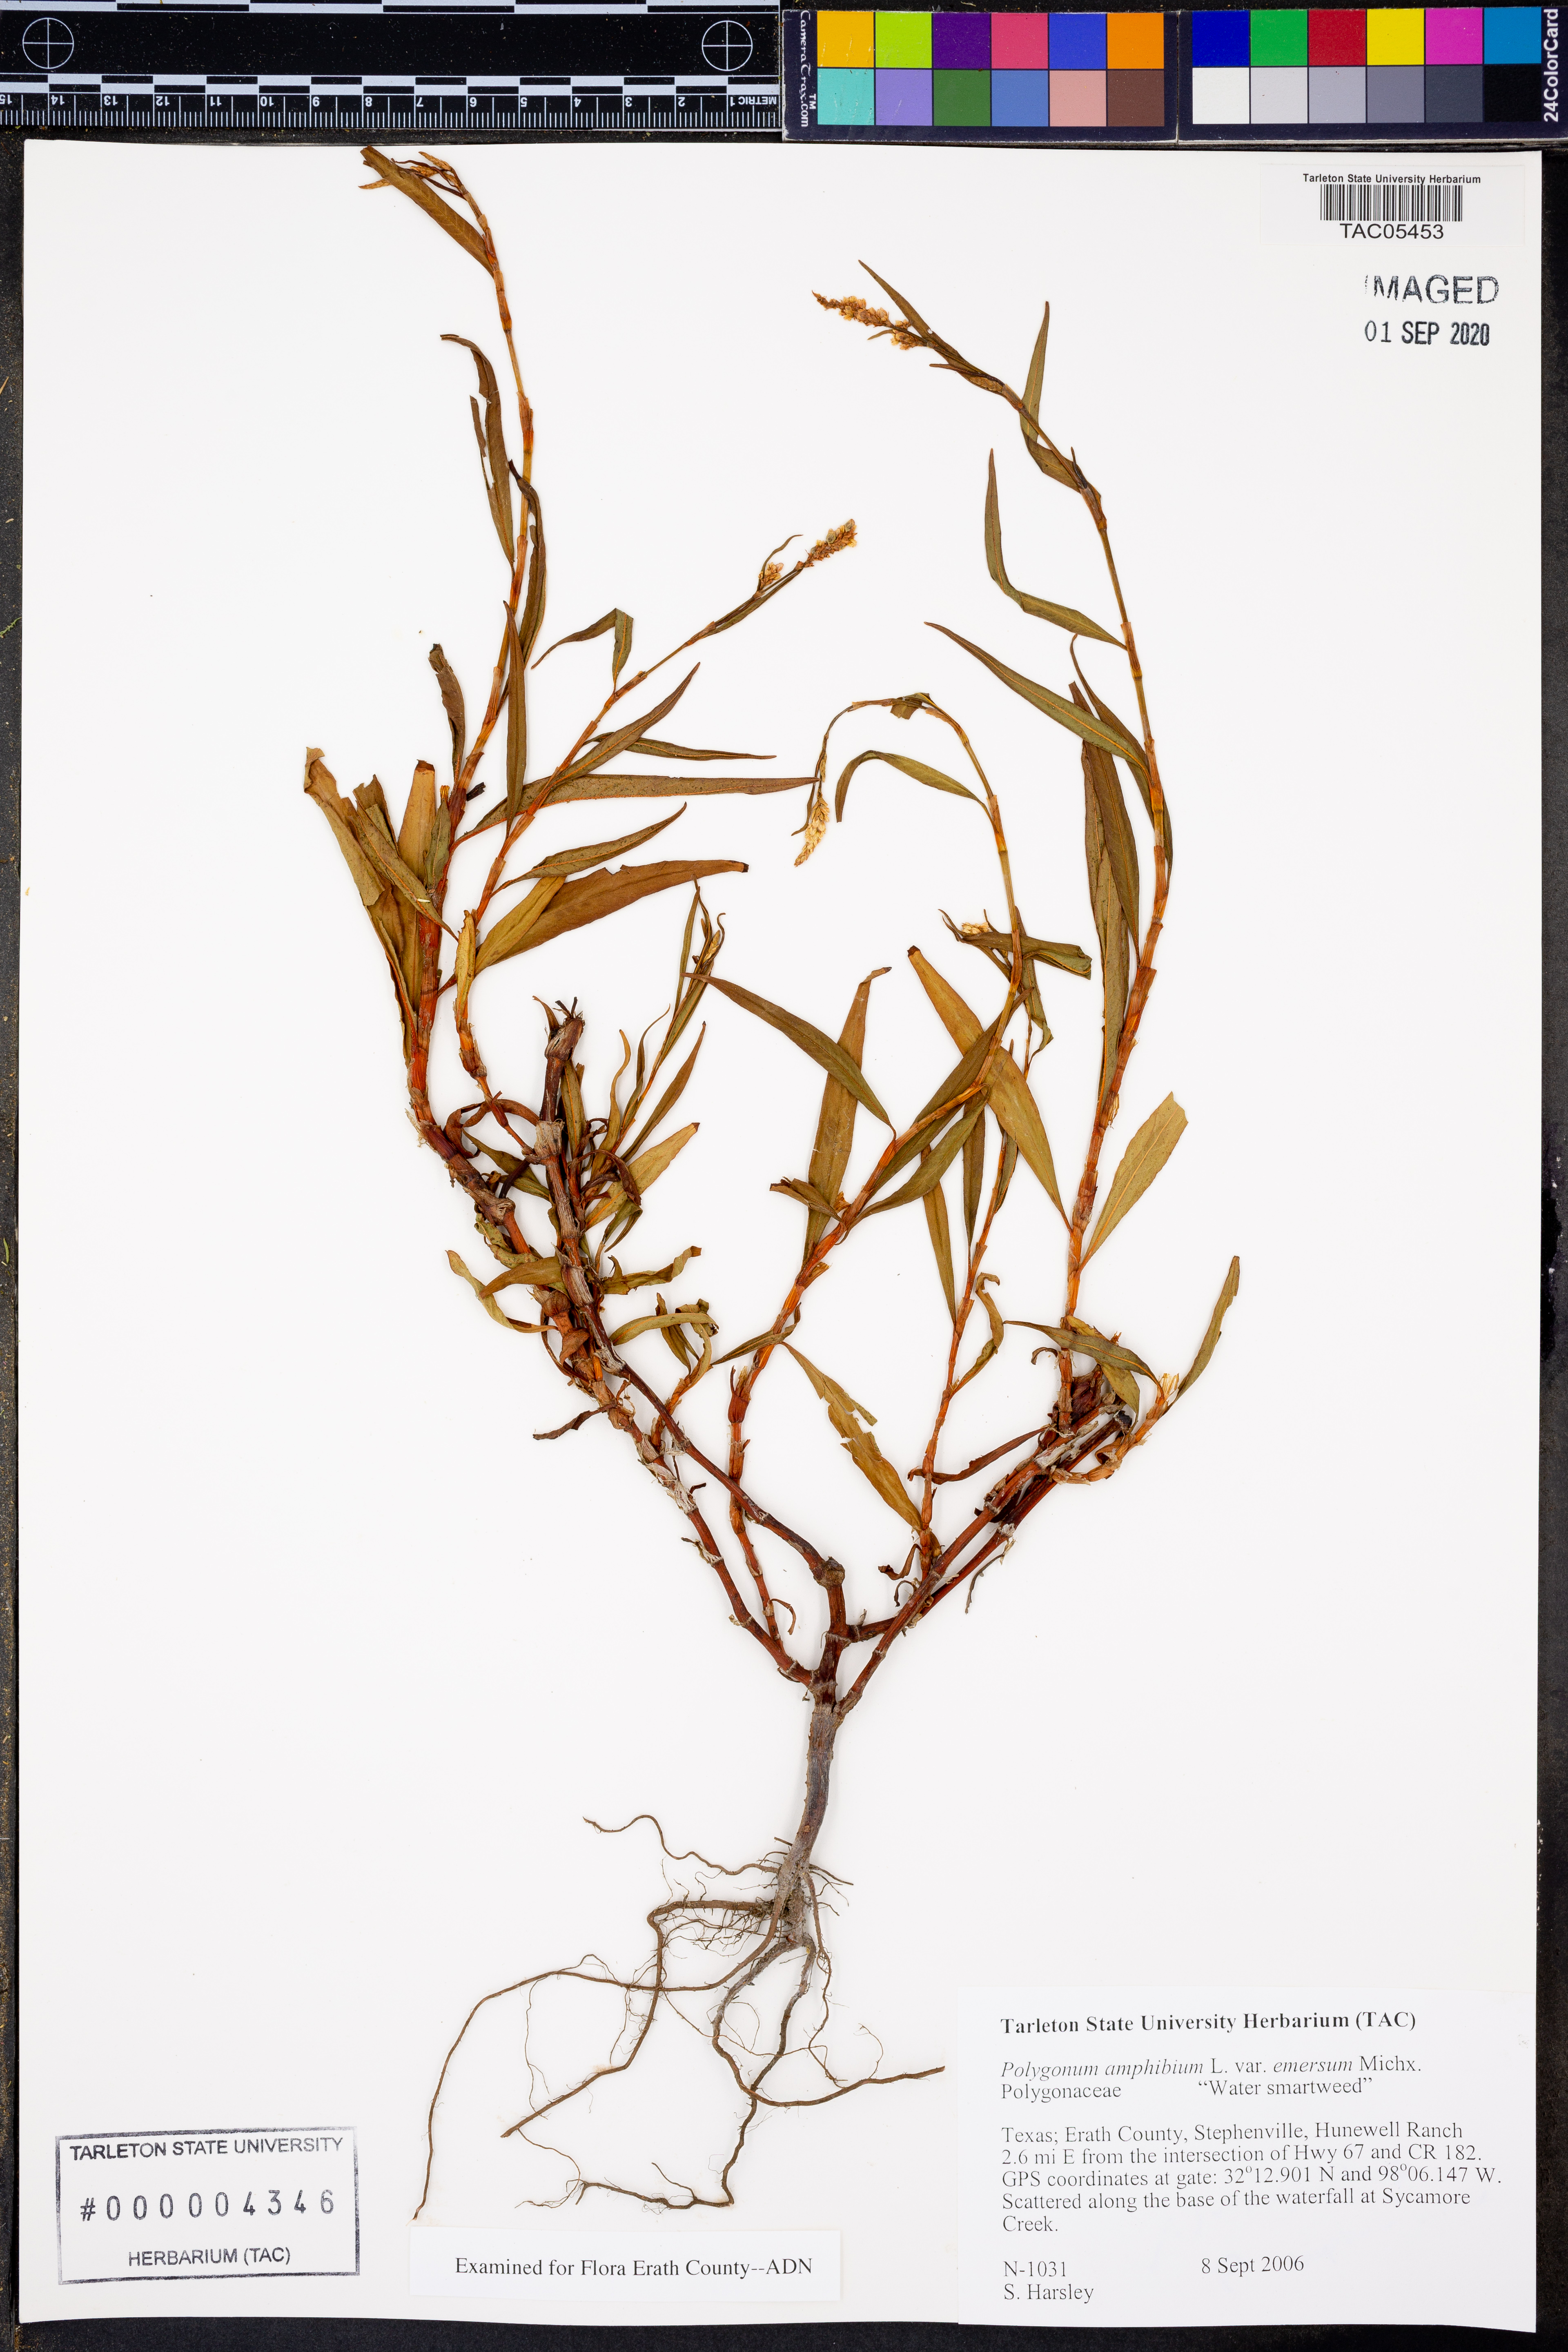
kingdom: Plantae
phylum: Tracheophyta
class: Magnoliopsida
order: Caryophyllales
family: Polygonaceae
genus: Persicaria
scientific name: Persicaria amphibia
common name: Amphibious bistort
